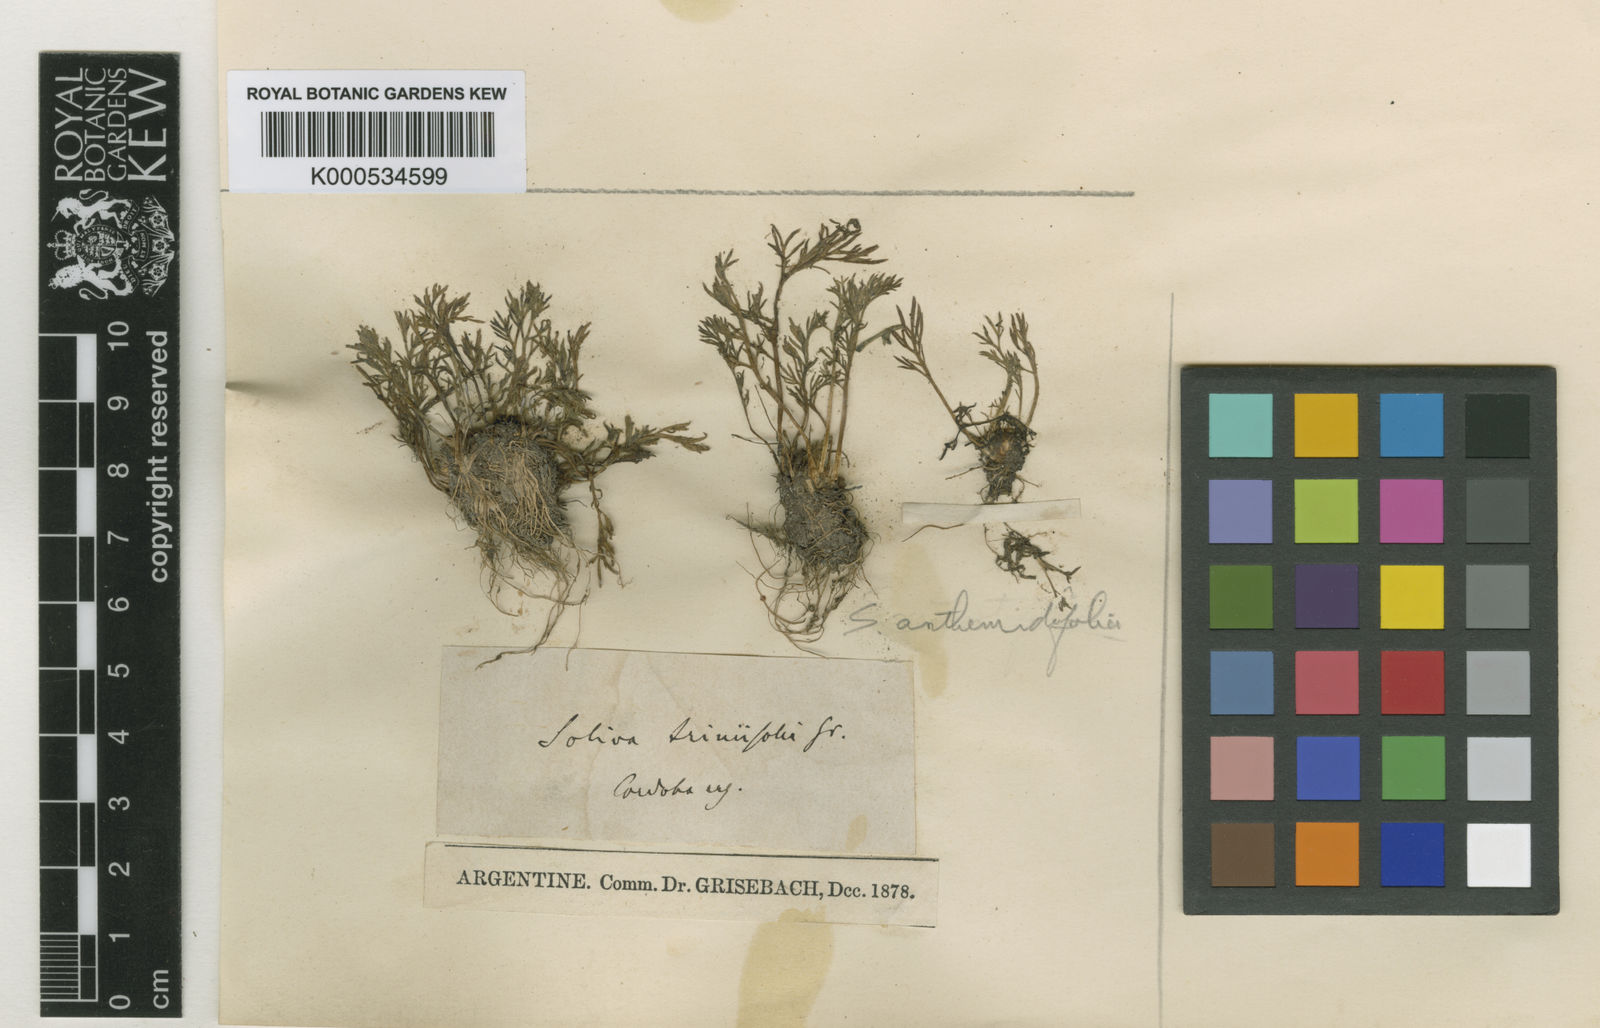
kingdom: Plantae
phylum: Tracheophyta
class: Magnoliopsida
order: Asterales
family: Asteraceae
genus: Soliva
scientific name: Soliva triniifolia
